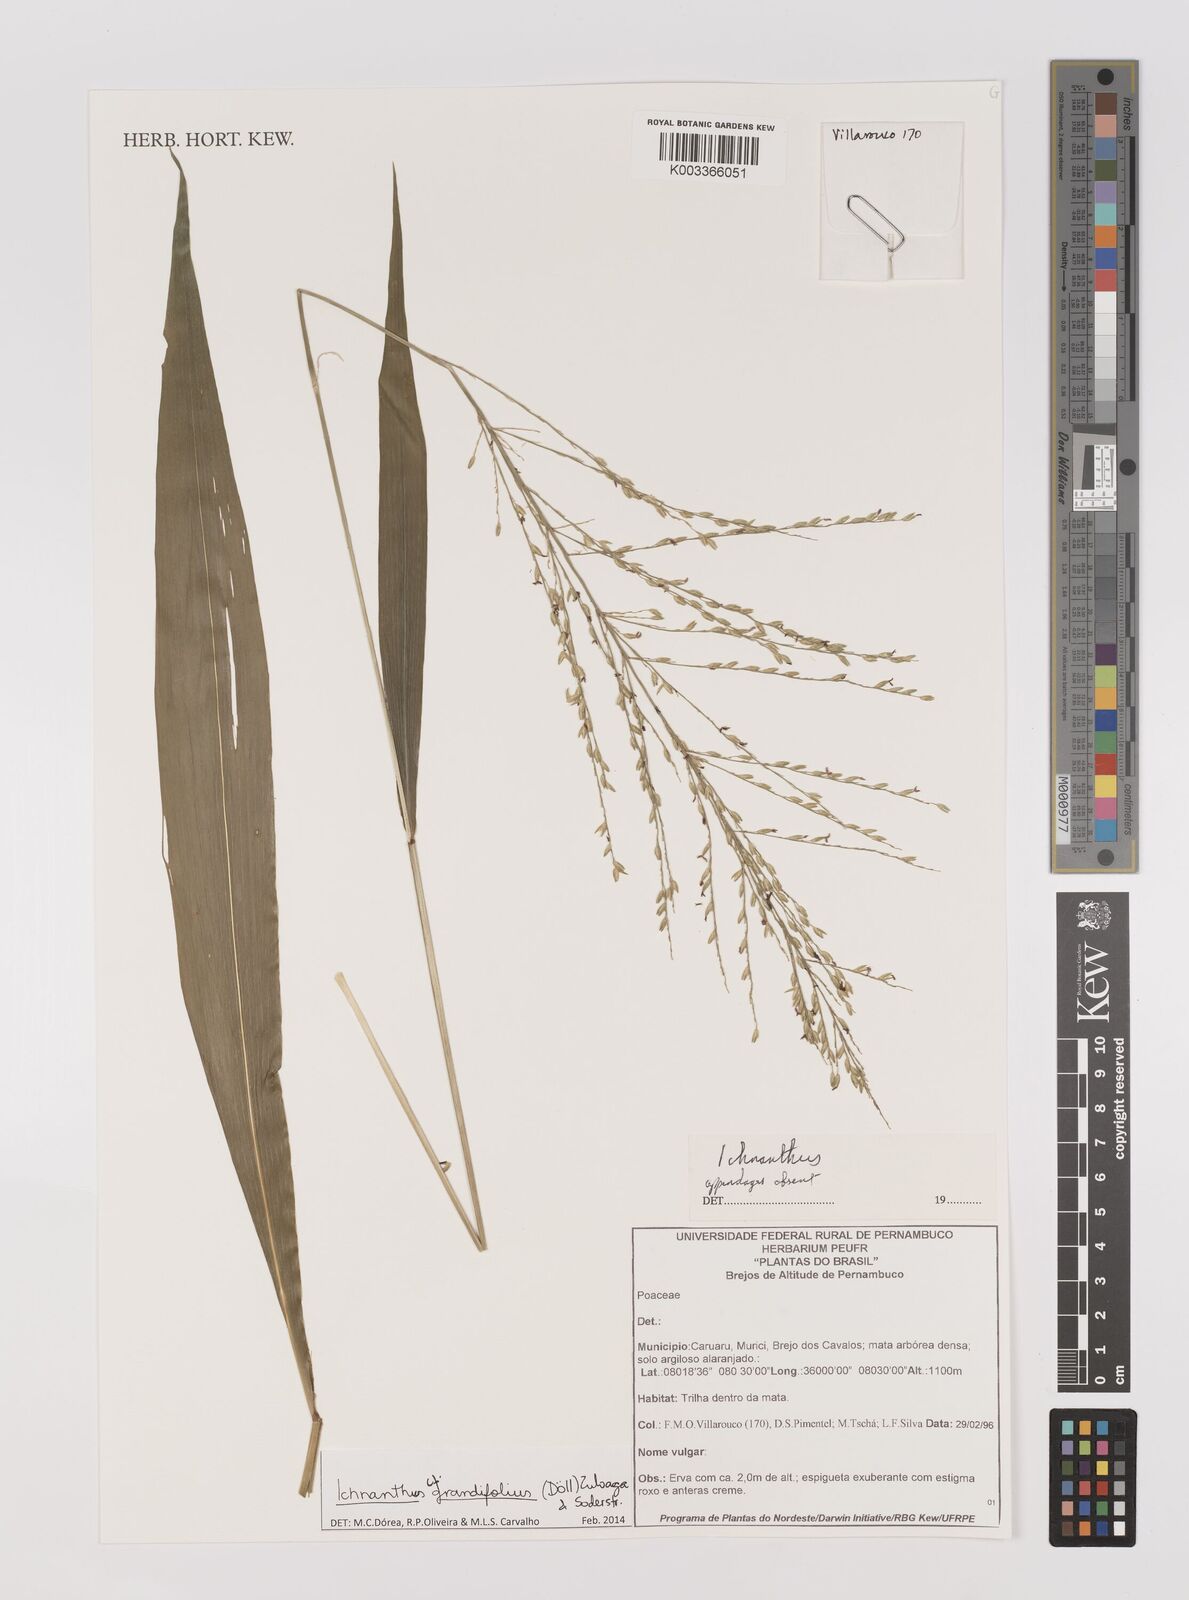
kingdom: Plantae
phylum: Tracheophyta
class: Liliopsida
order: Poales
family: Poaceae
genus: Oedochloa
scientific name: Oedochloa grandifolia
